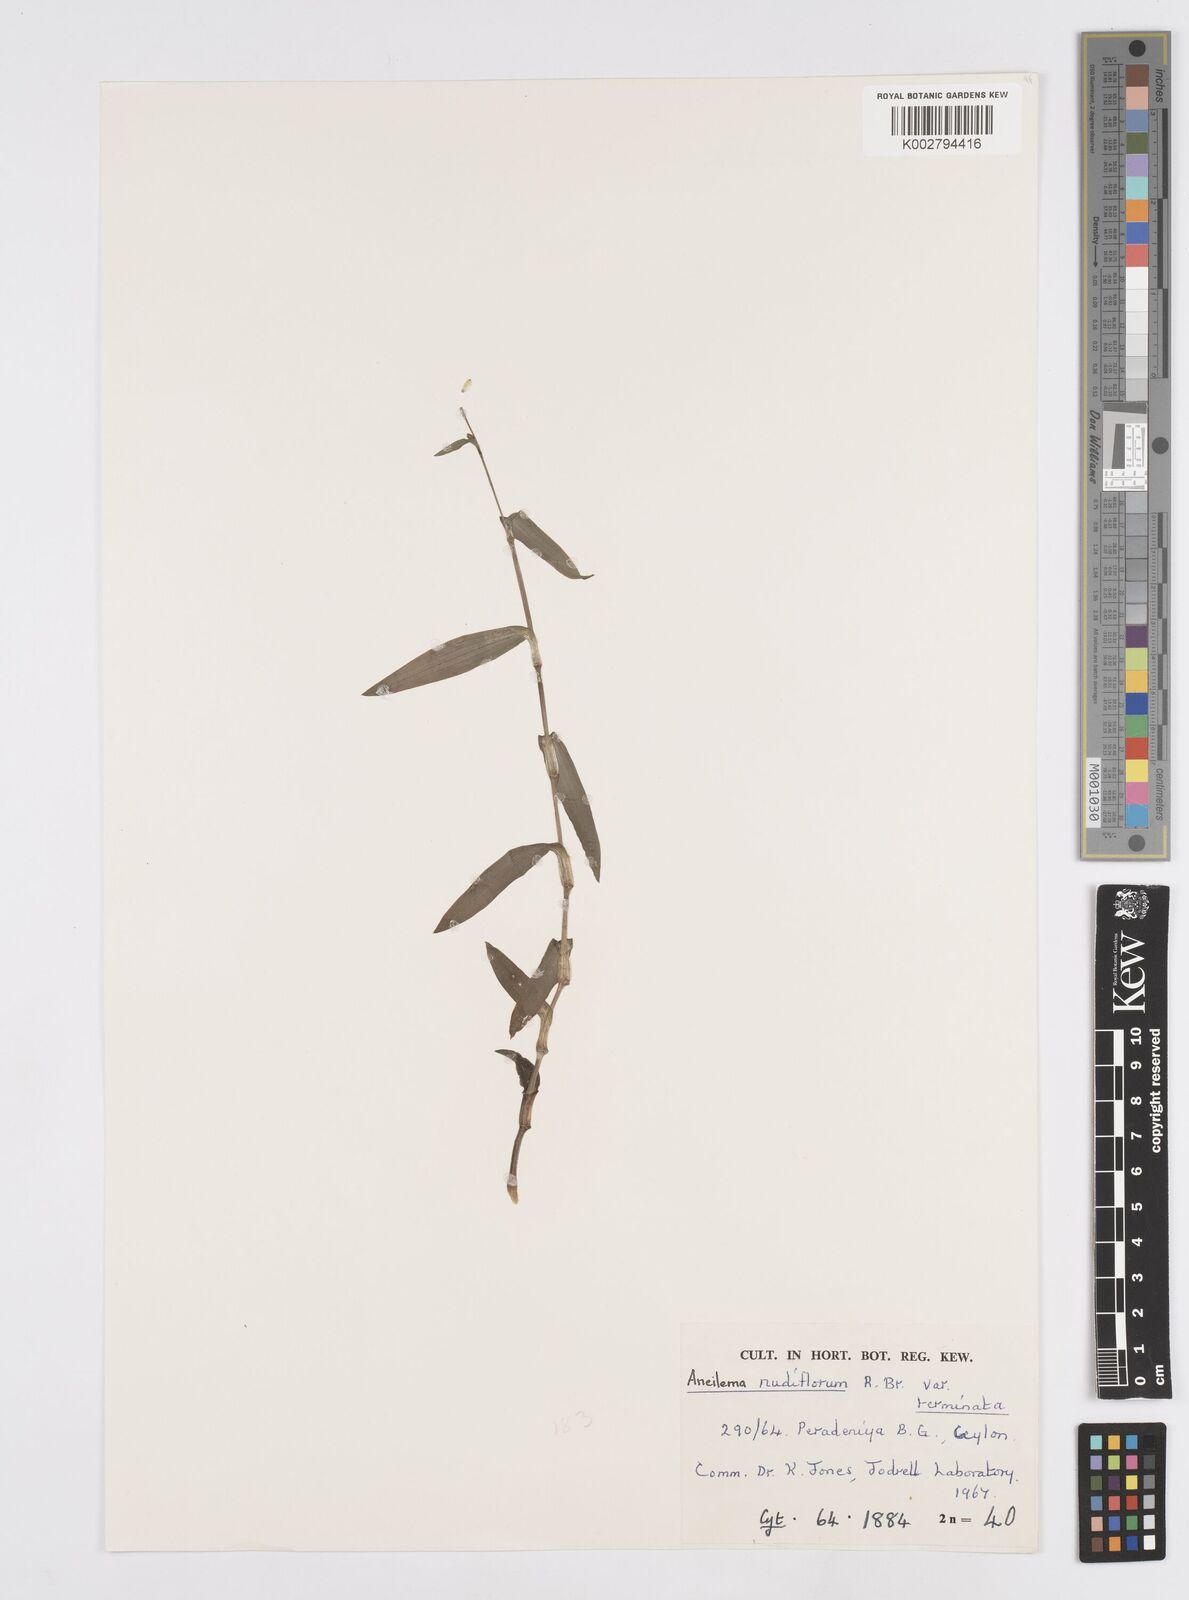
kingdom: Plantae
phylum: Tracheophyta
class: Liliopsida
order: Commelinales
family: Commelinaceae
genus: Murdannia
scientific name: Murdannia nudiflora
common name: Nakedstem dewflower
